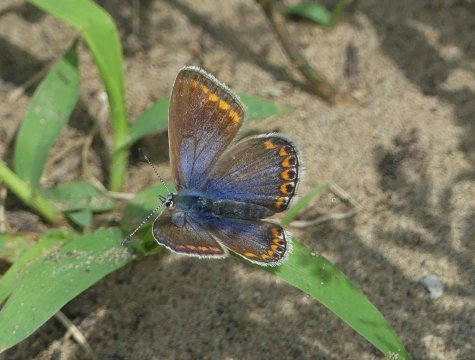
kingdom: Animalia
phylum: Arthropoda
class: Insecta
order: Lepidoptera
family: Lycaenidae
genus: Polyommatus
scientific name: Polyommatus icarus
